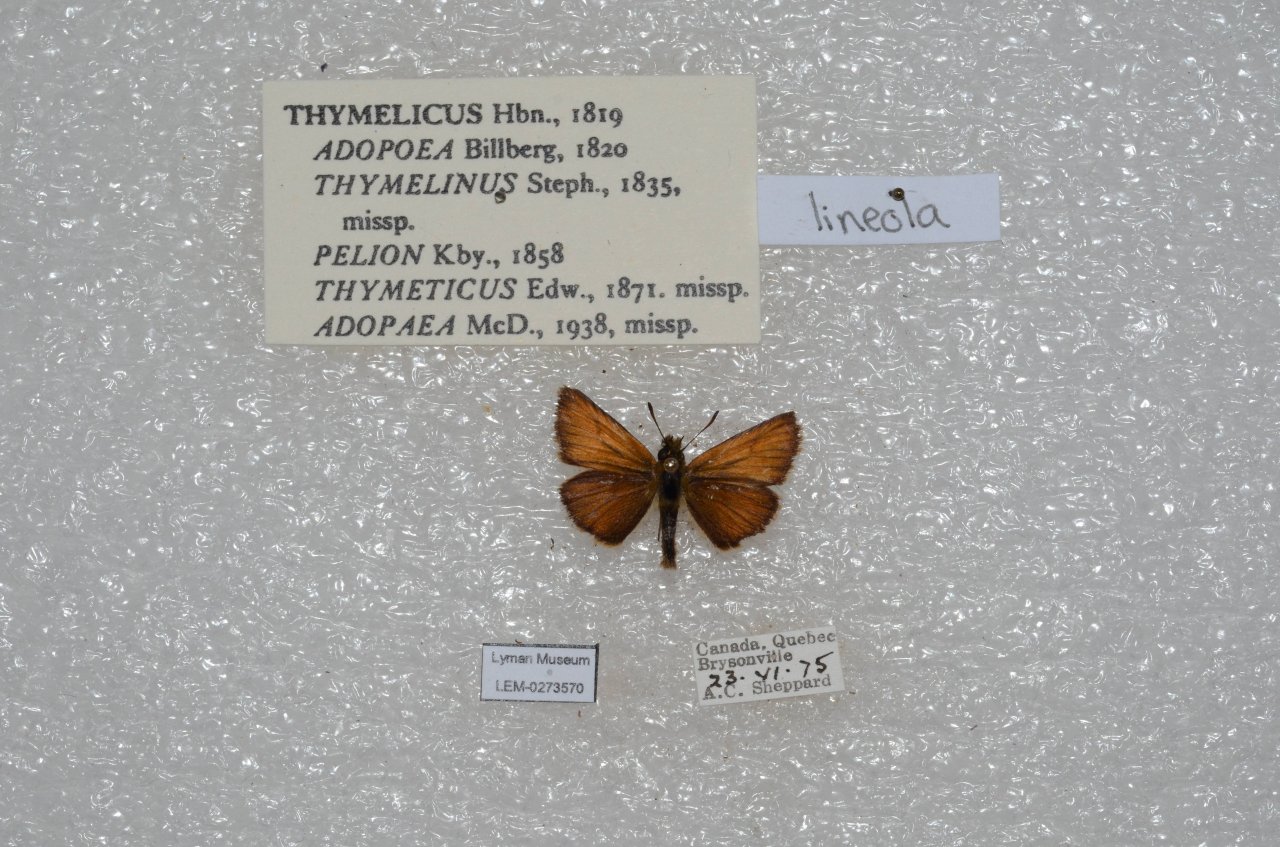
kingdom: Animalia
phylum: Arthropoda
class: Insecta
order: Lepidoptera
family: Hesperiidae
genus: Thymelicus
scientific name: Thymelicus lineola
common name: European Skipper
